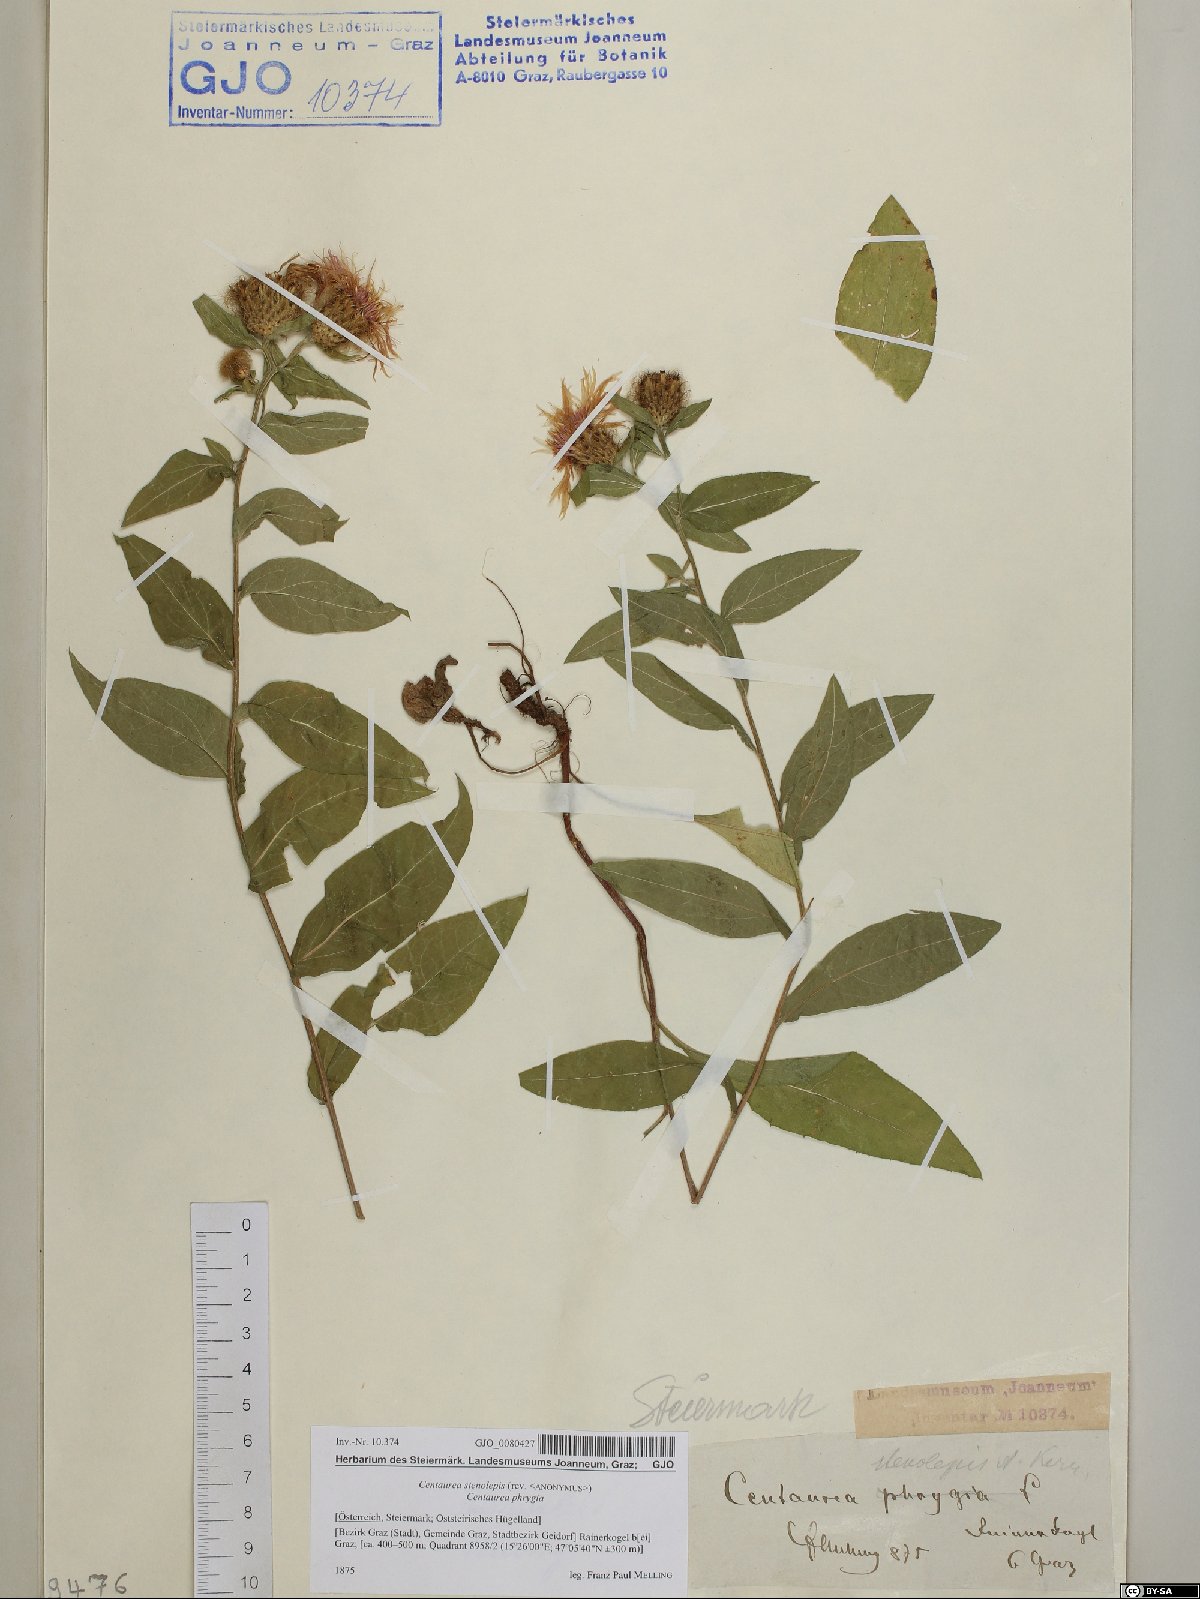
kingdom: Plantae
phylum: Tracheophyta
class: Magnoliopsida
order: Asterales
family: Asteraceae
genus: Centaurea
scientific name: Centaurea stenolepis
